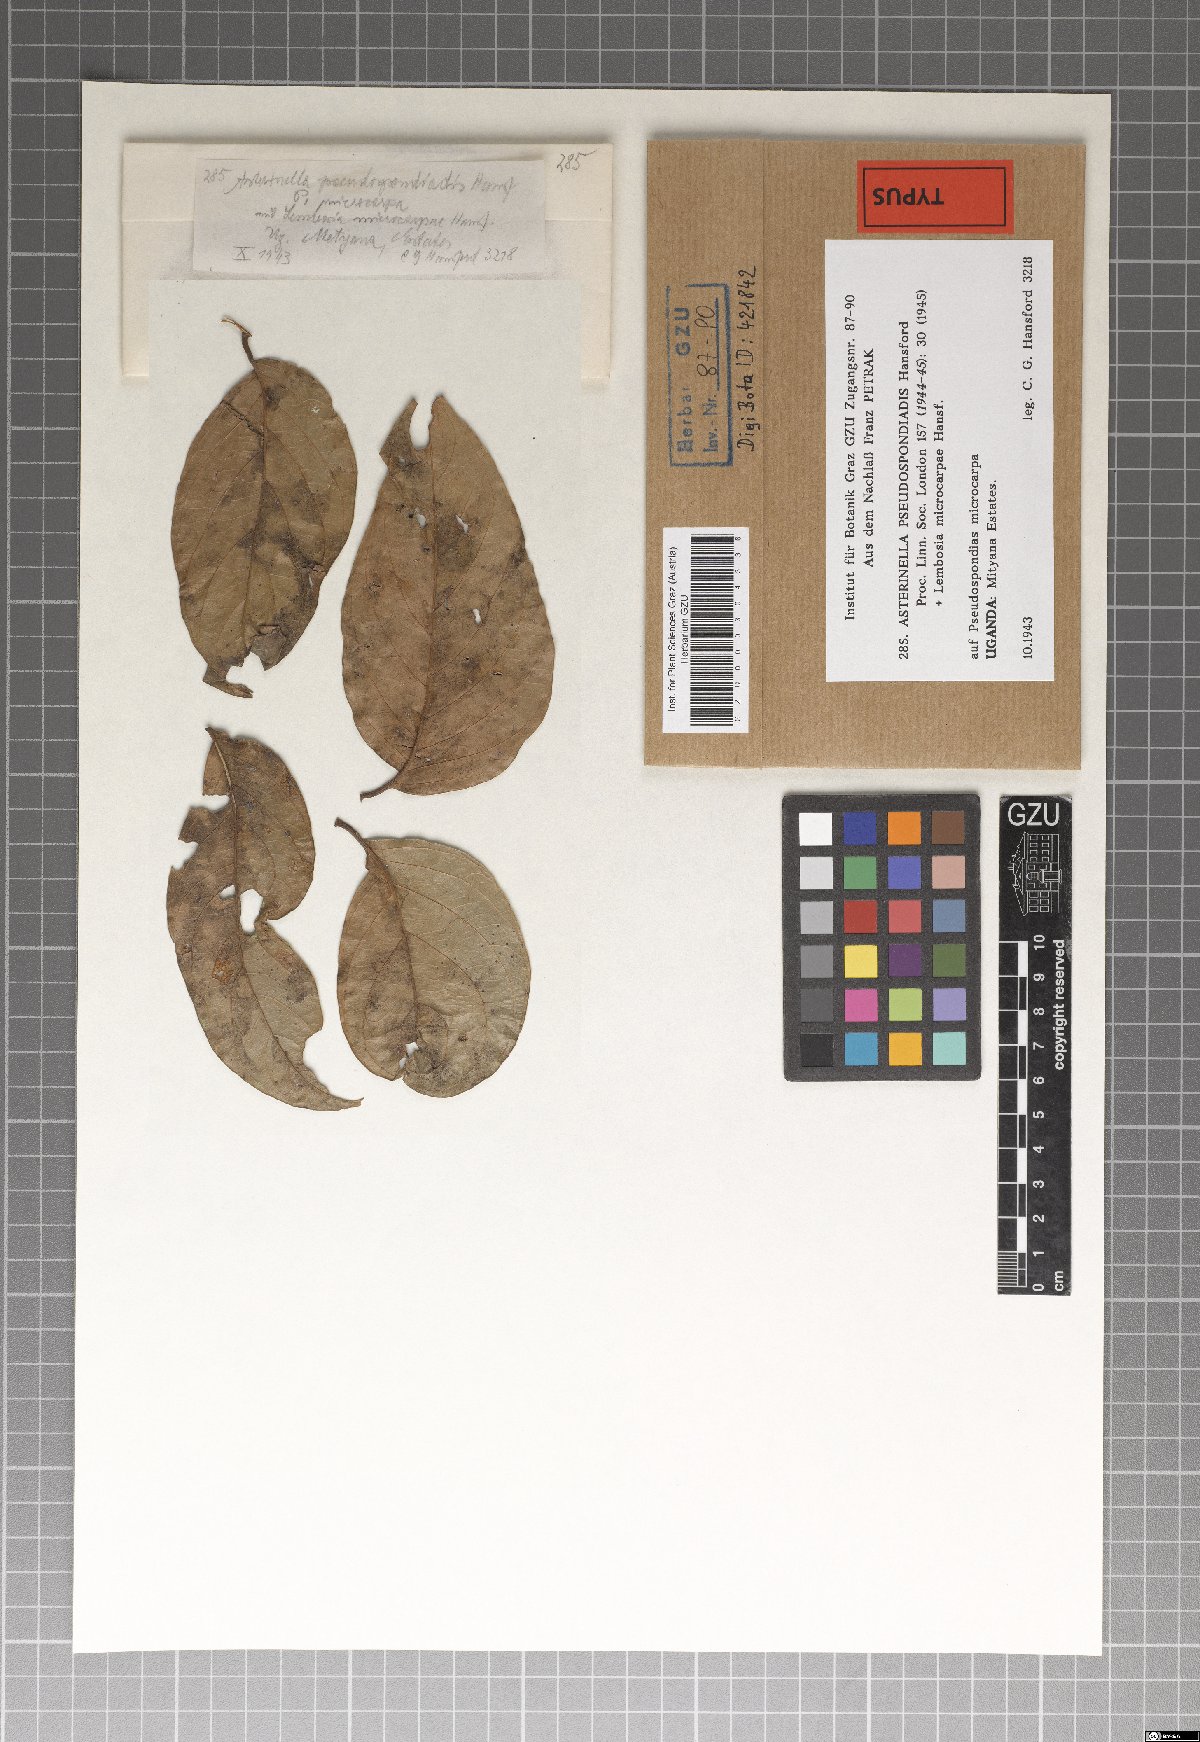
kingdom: Fungi
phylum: Ascomycota
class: Dothideomycetes
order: Microthyriales
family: Microthyriaceae
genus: Asterinella
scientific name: Asterinella pseudospondiadis
